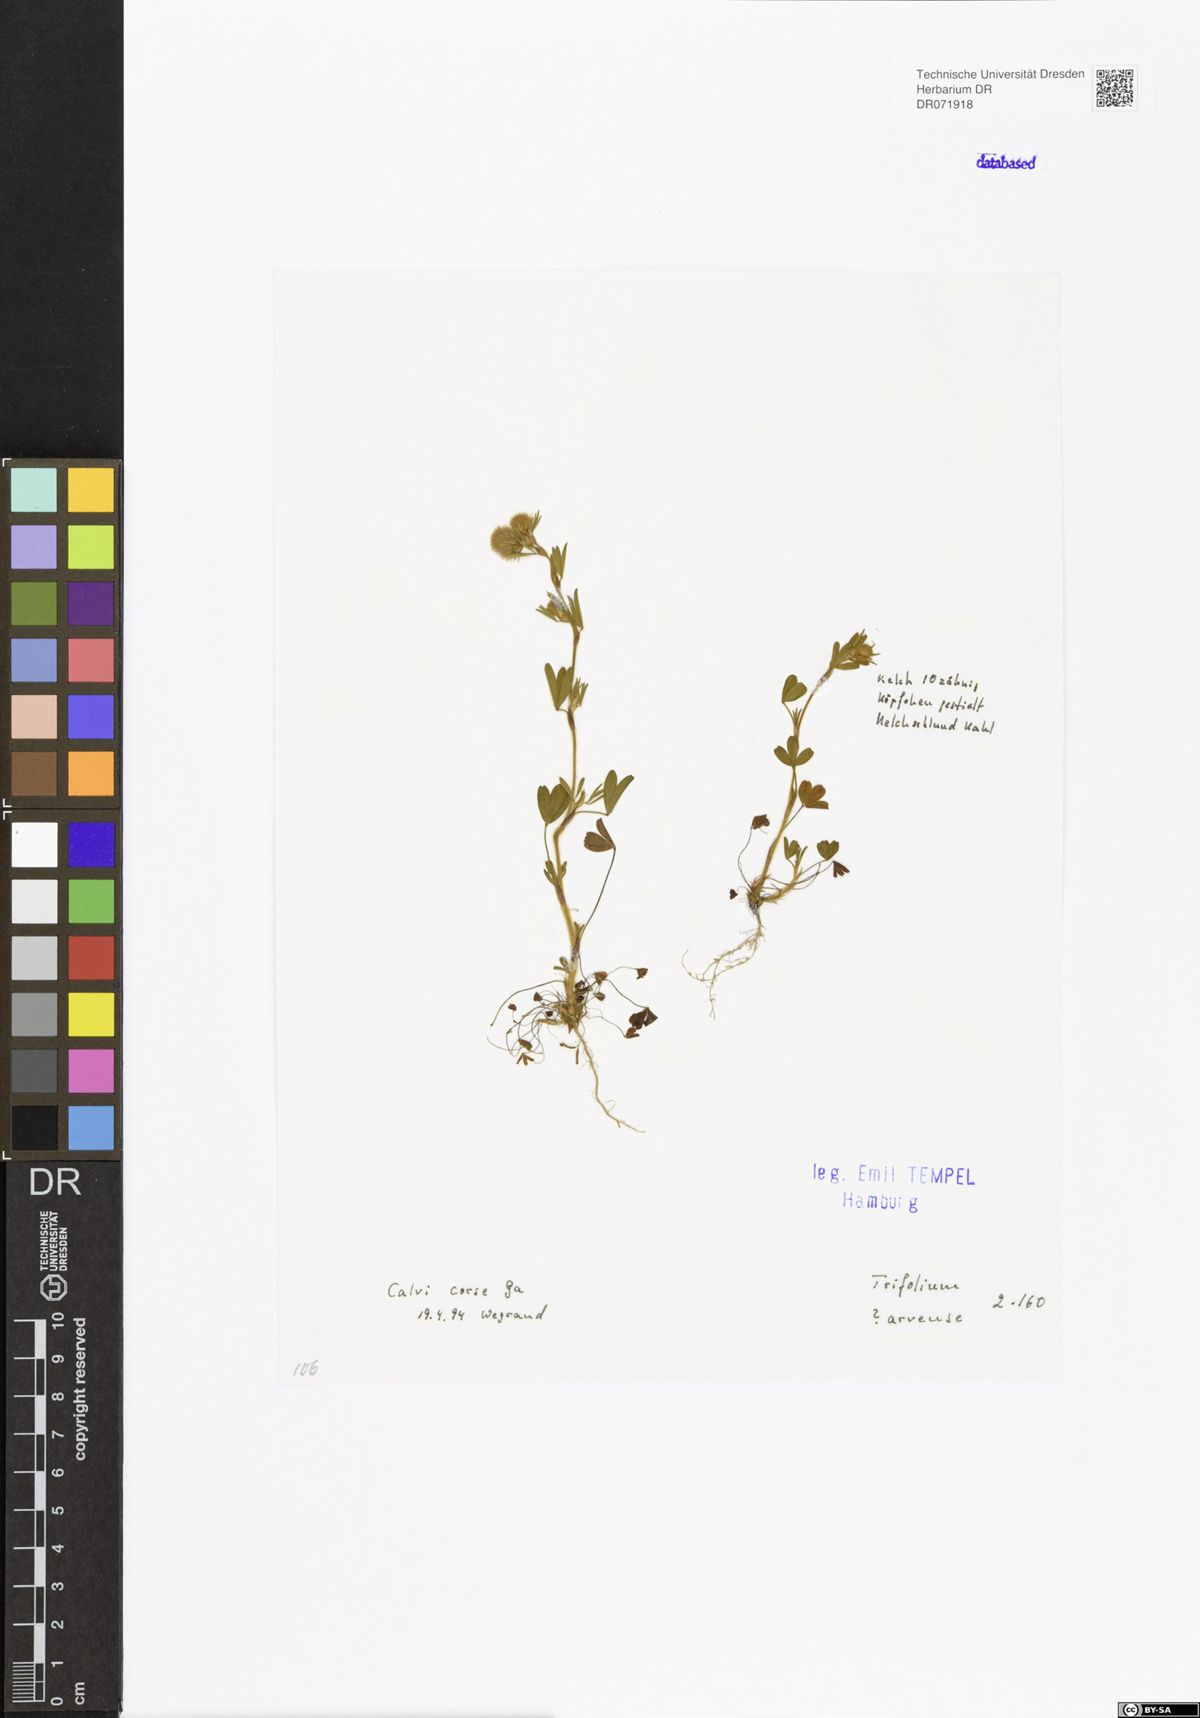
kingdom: Plantae
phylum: Tracheophyta
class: Magnoliopsida
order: Fabales
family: Fabaceae
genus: Trifolium
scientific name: Trifolium arvense
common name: Hare's-foot clover
